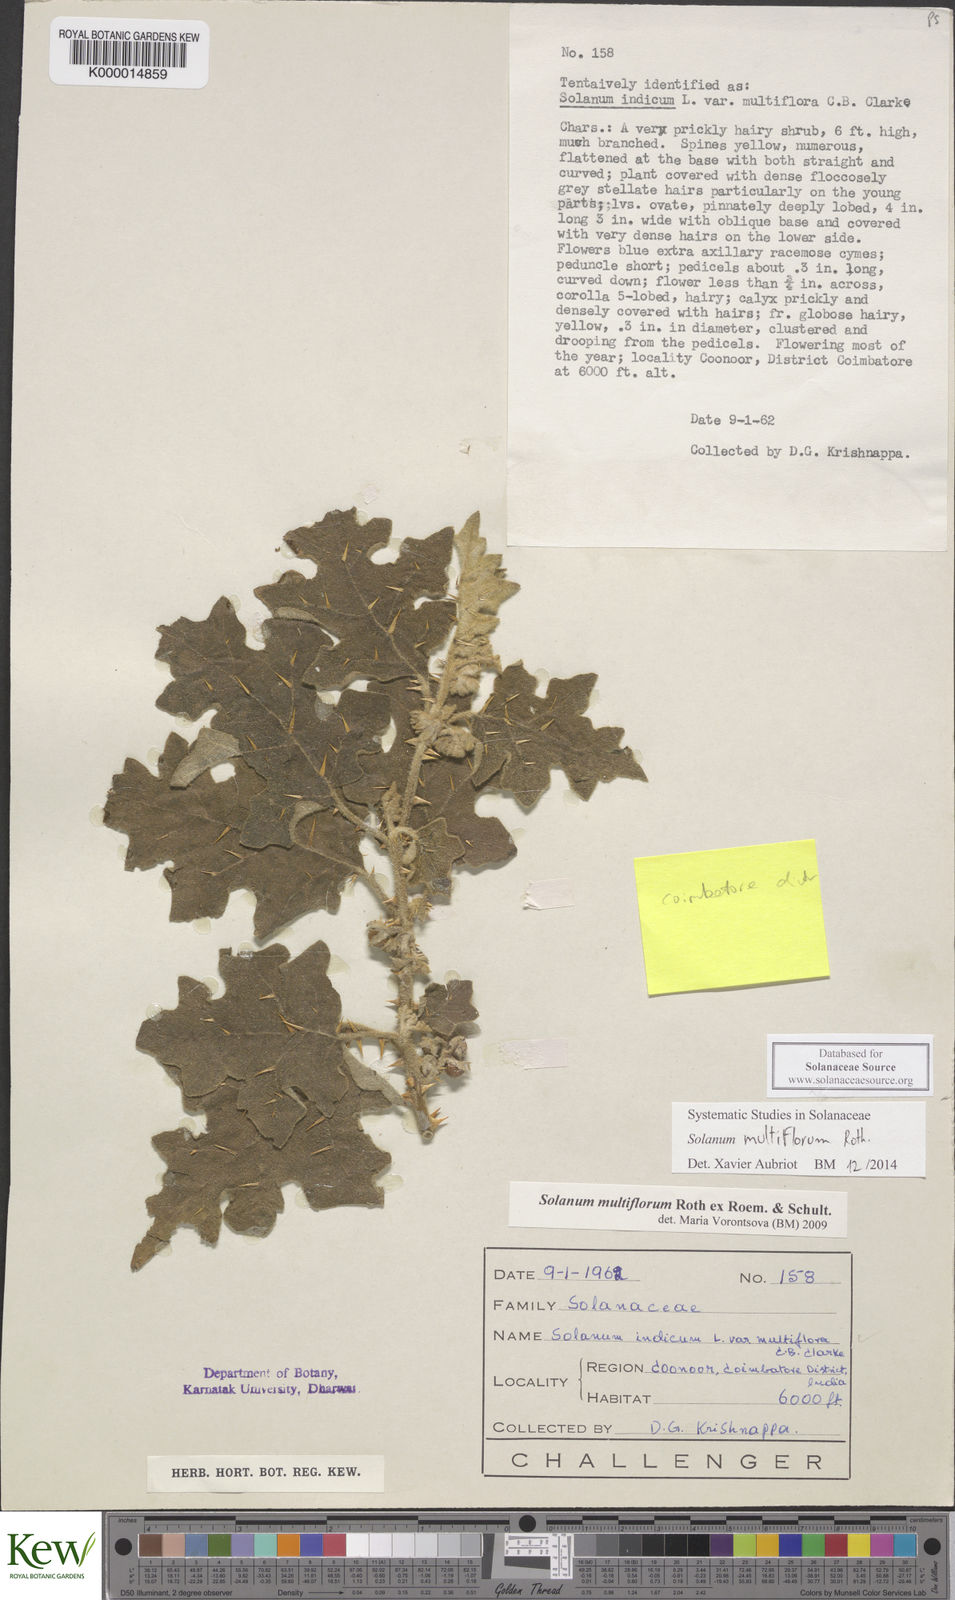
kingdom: Plantae
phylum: Tracheophyta
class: Magnoliopsida
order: Solanales
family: Solanaceae
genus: Solanum
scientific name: Solanum multiflorum
